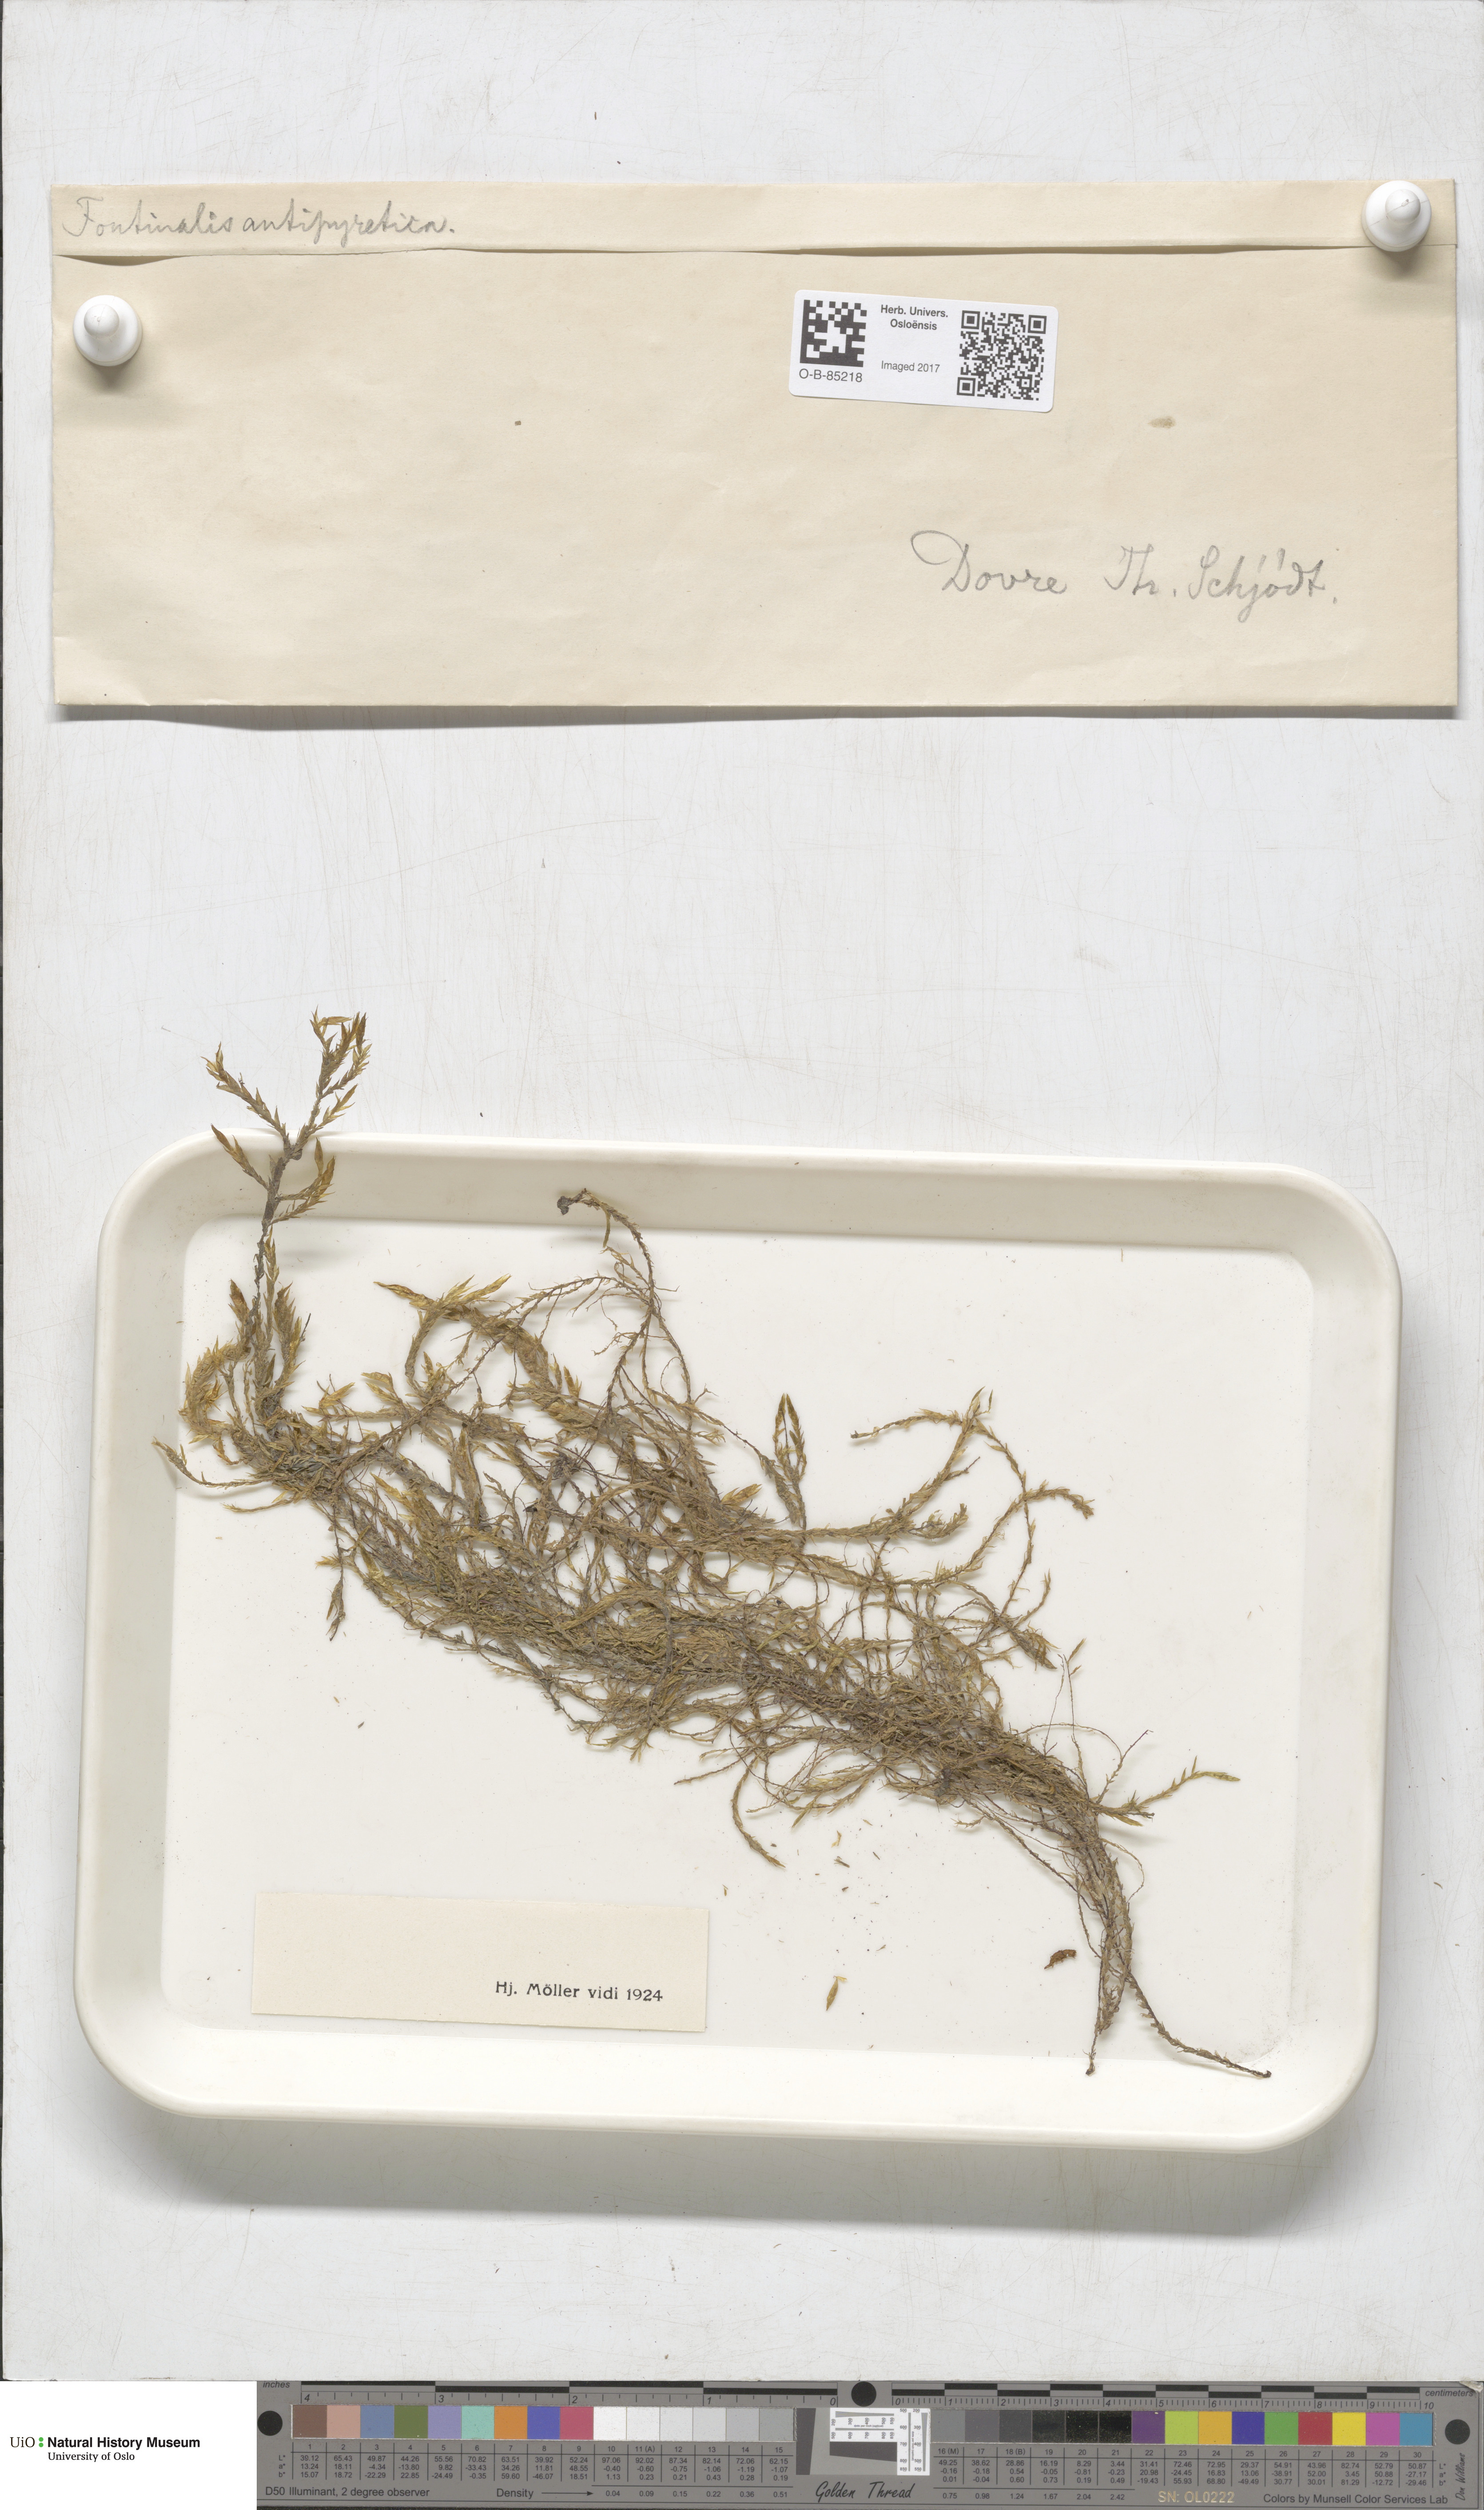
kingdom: Plantae
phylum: Bryophyta
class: Bryopsida
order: Hypnales
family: Fontinalaceae
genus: Fontinalis
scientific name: Fontinalis antipyretica
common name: Greater water-moss
